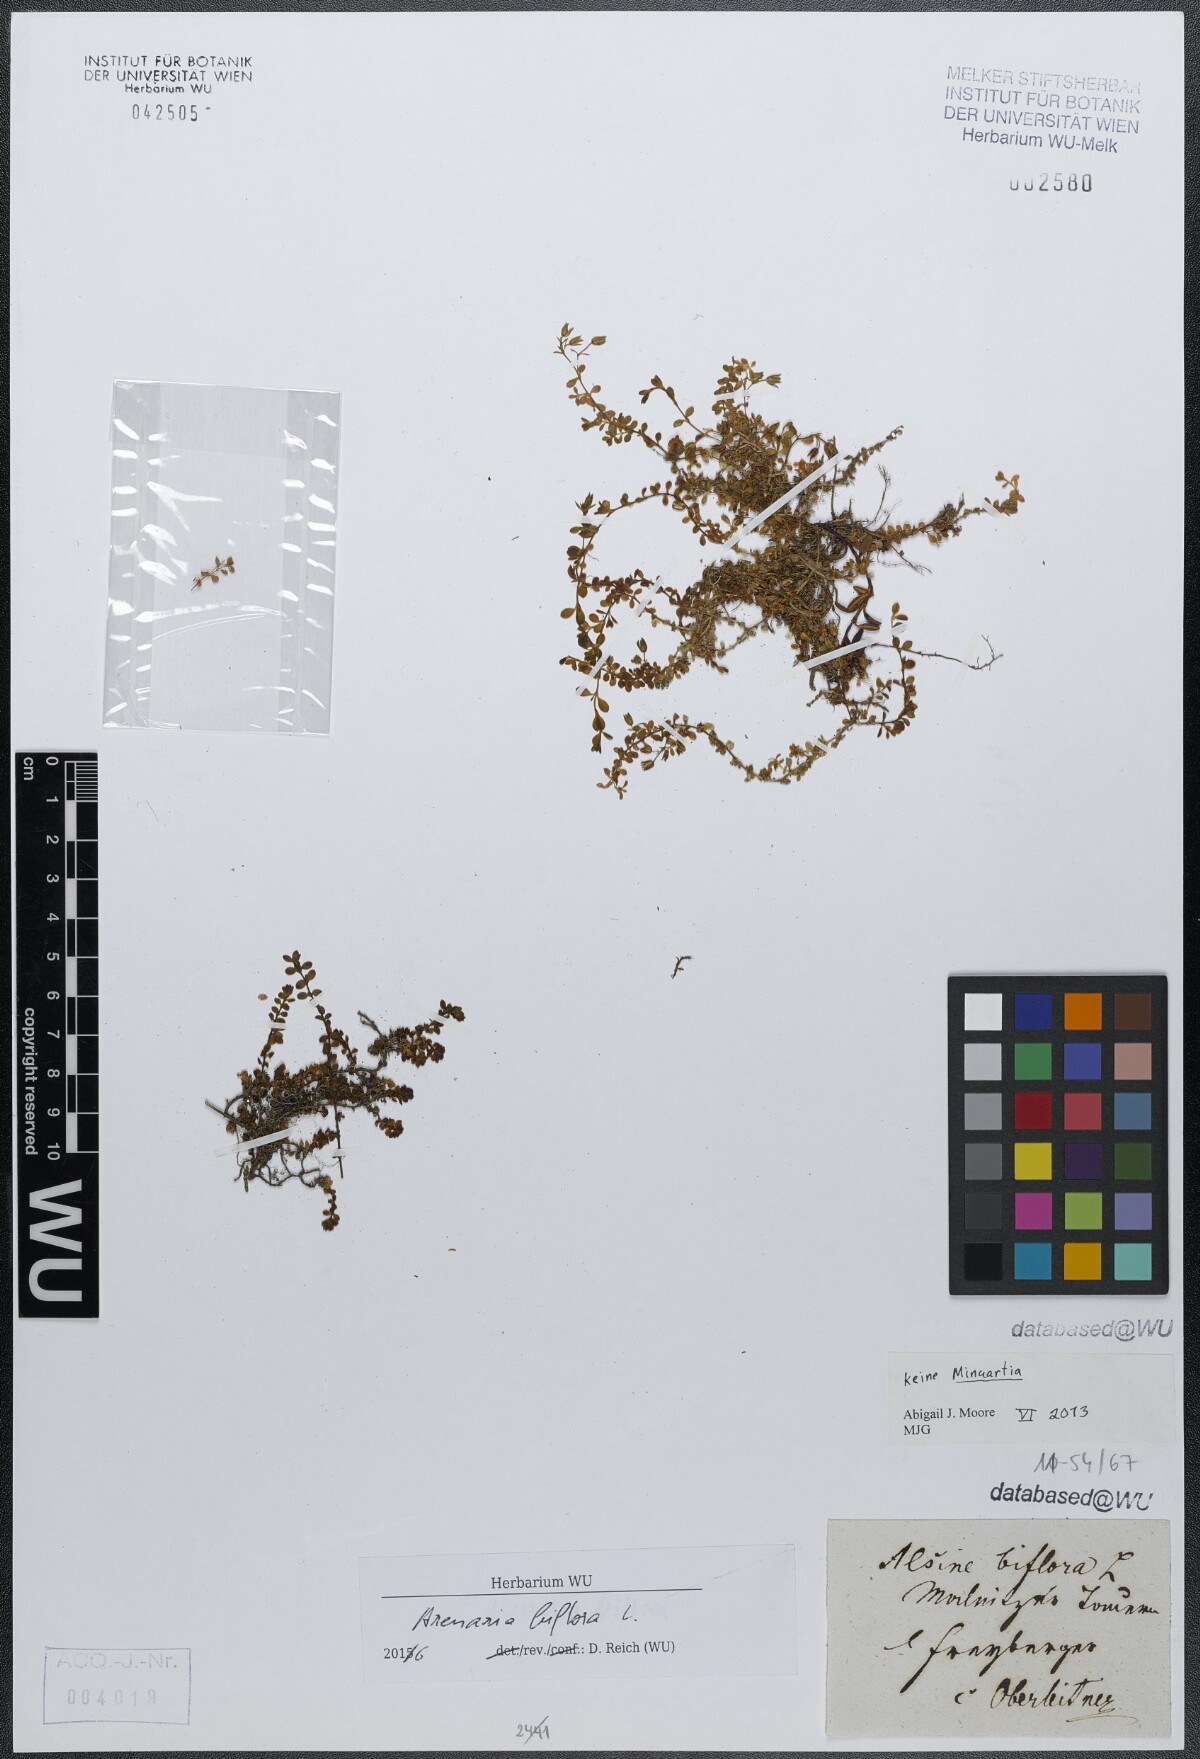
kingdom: Plantae
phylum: Tracheophyta
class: Magnoliopsida
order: Caryophyllales
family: Caryophyllaceae
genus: Arenaria
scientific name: Arenaria biflora
